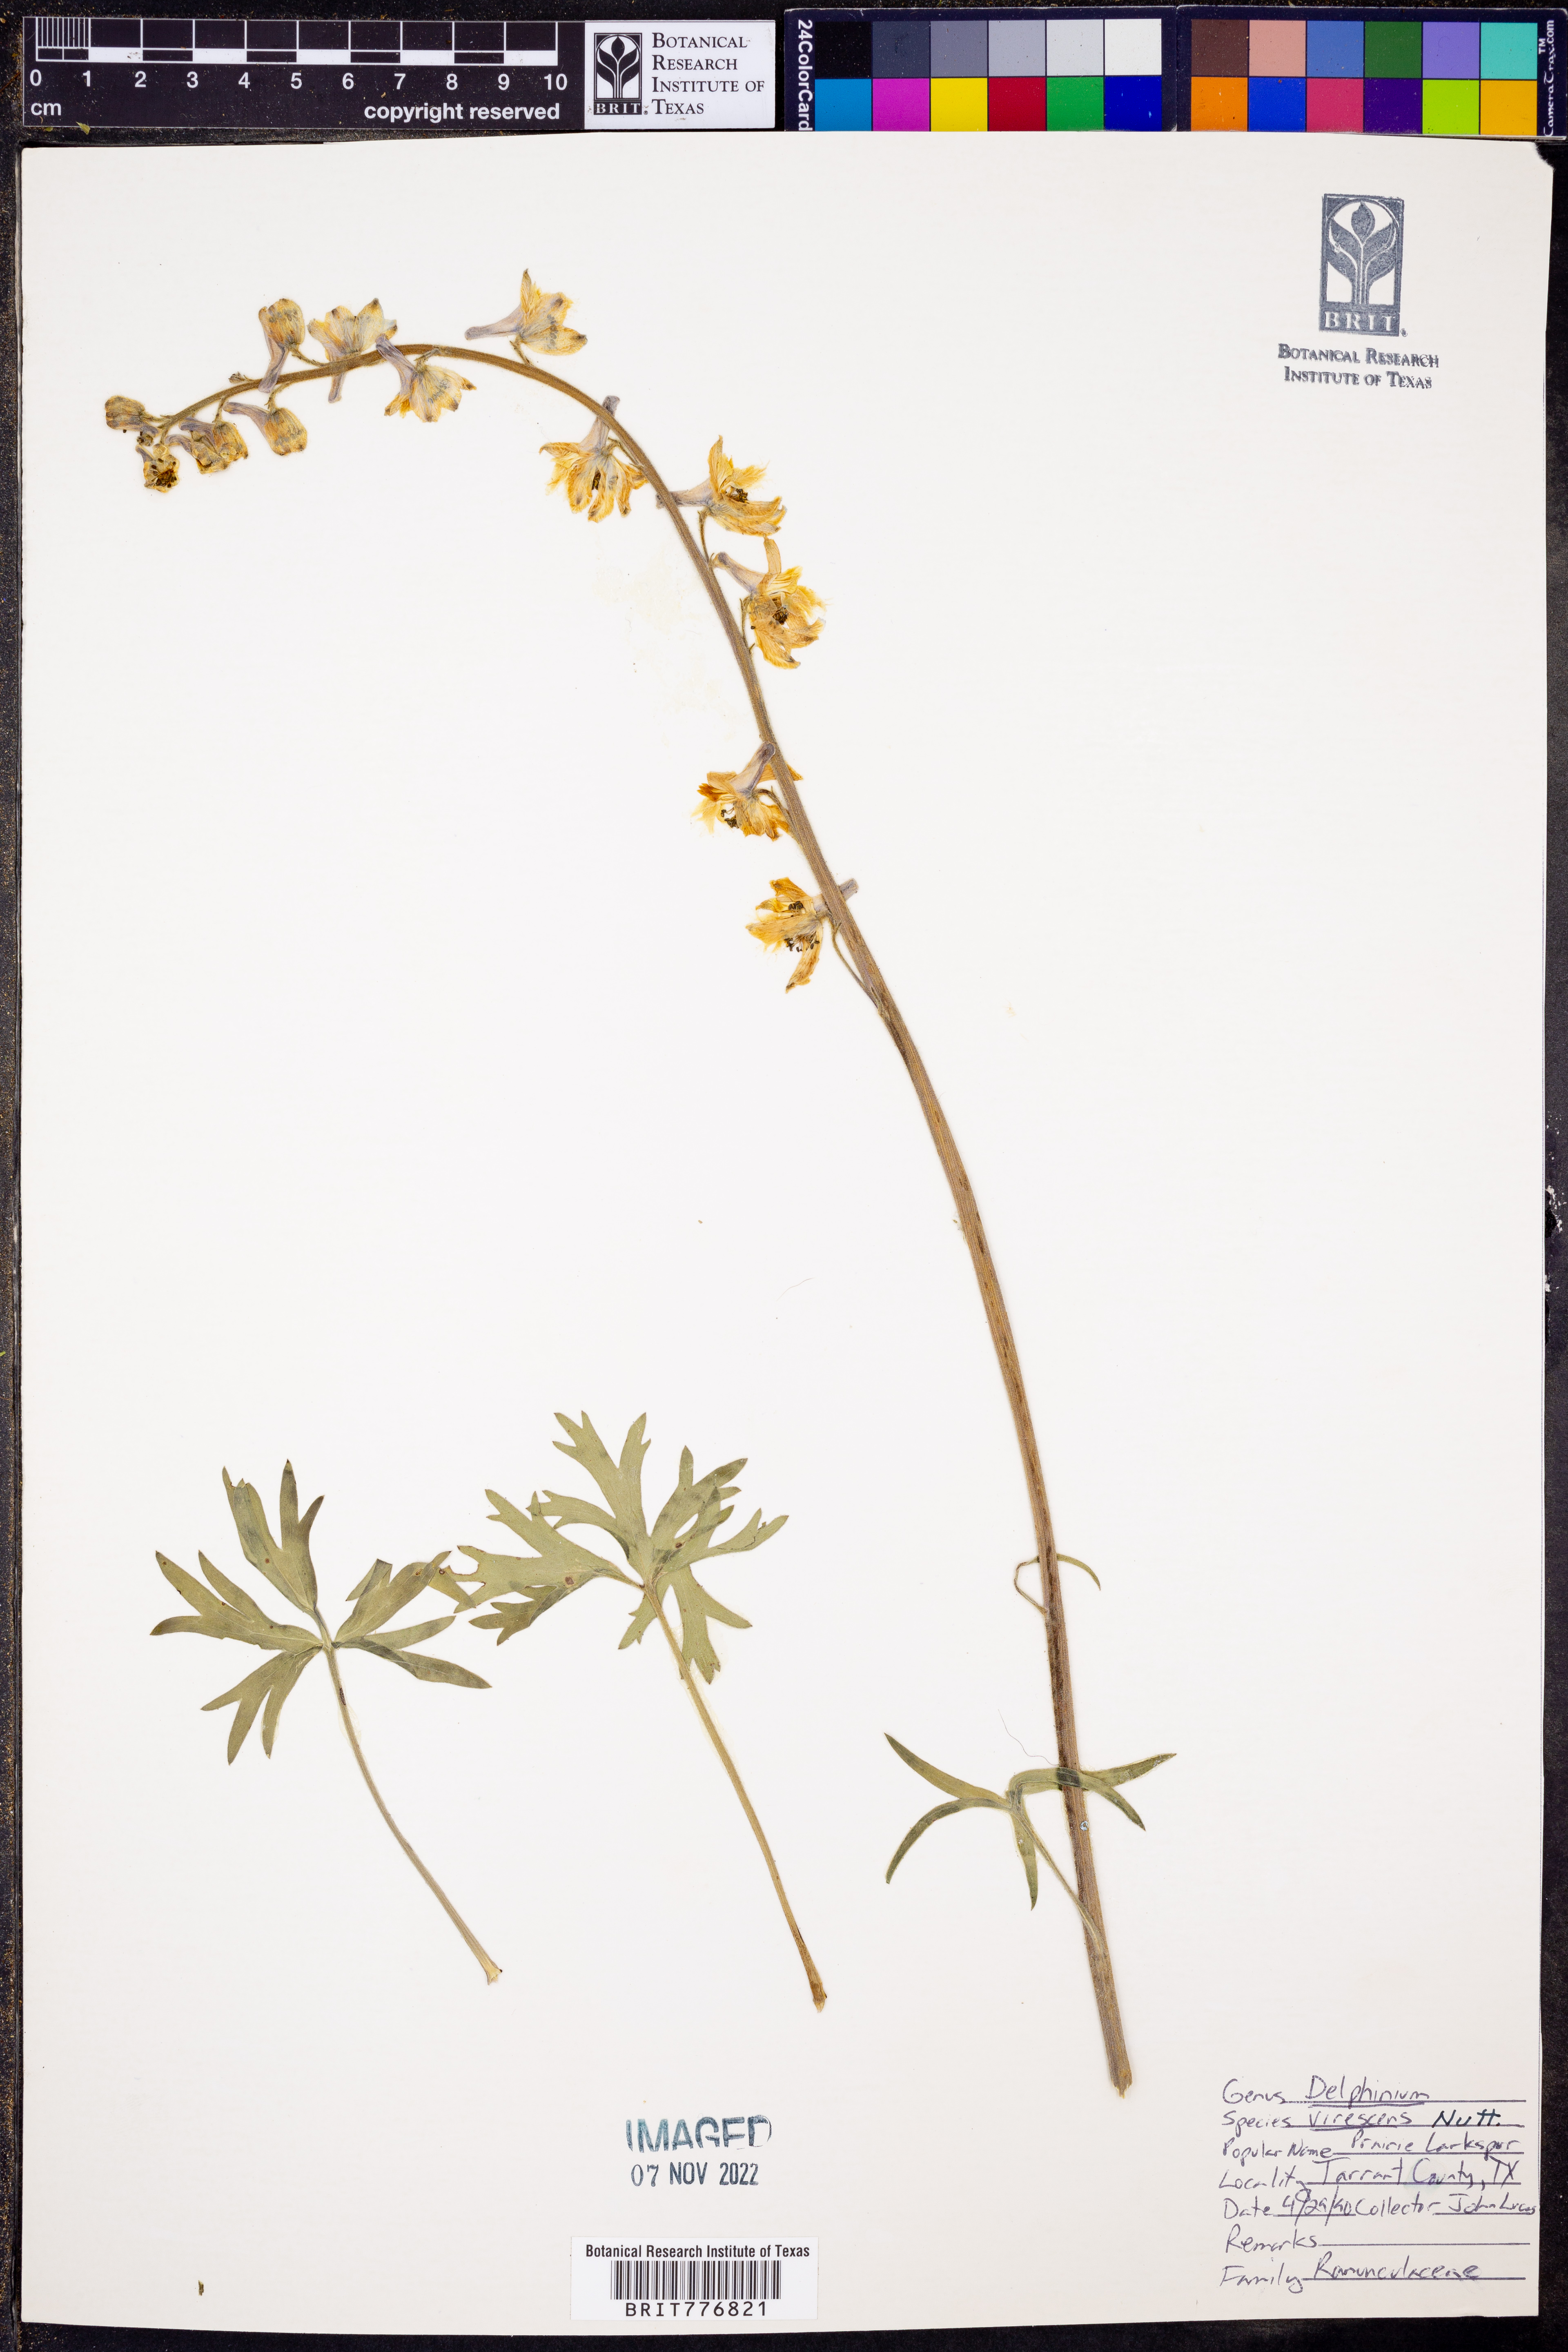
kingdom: Plantae
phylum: Tracheophyta
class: Magnoliopsida
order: Ranunculales
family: Ranunculaceae
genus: Delphinium
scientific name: Delphinium carolinianum
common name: Carolina larkspur
